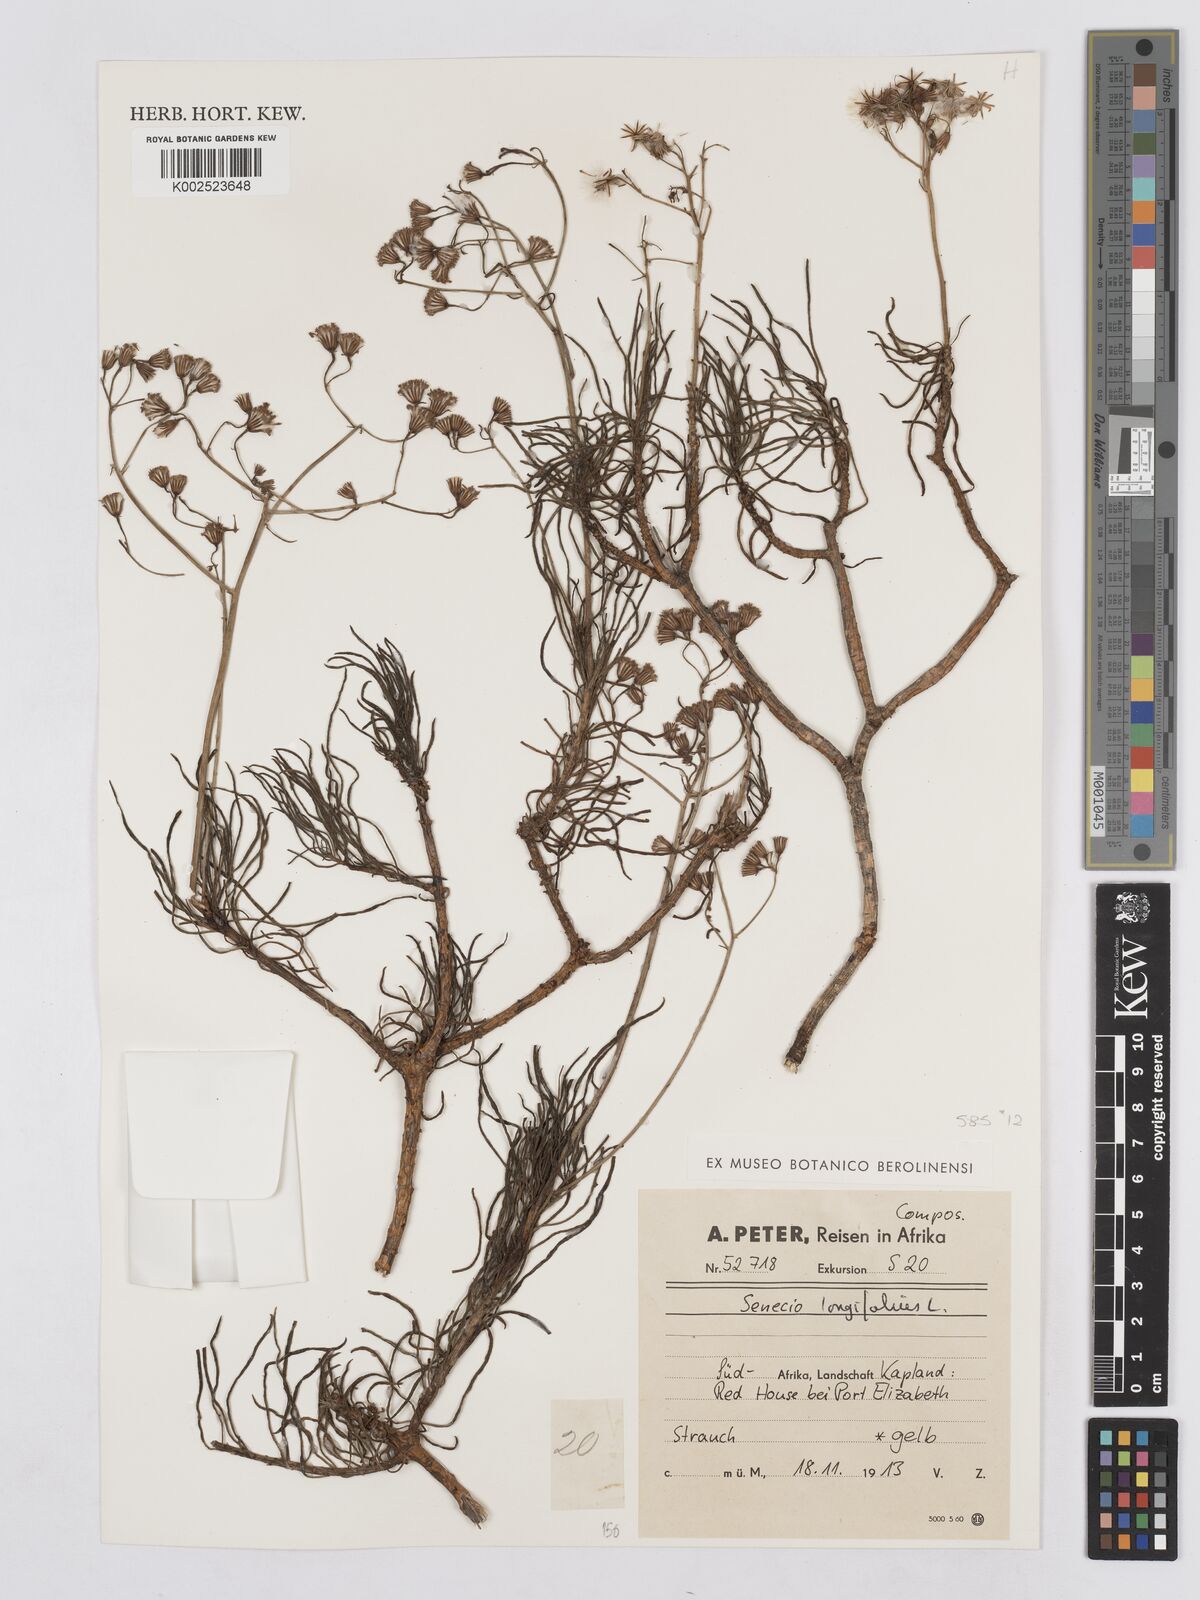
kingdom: Plantae
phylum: Tracheophyta
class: Magnoliopsida
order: Asterales
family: Asteraceae
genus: Senecio
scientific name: Senecio linifolius
